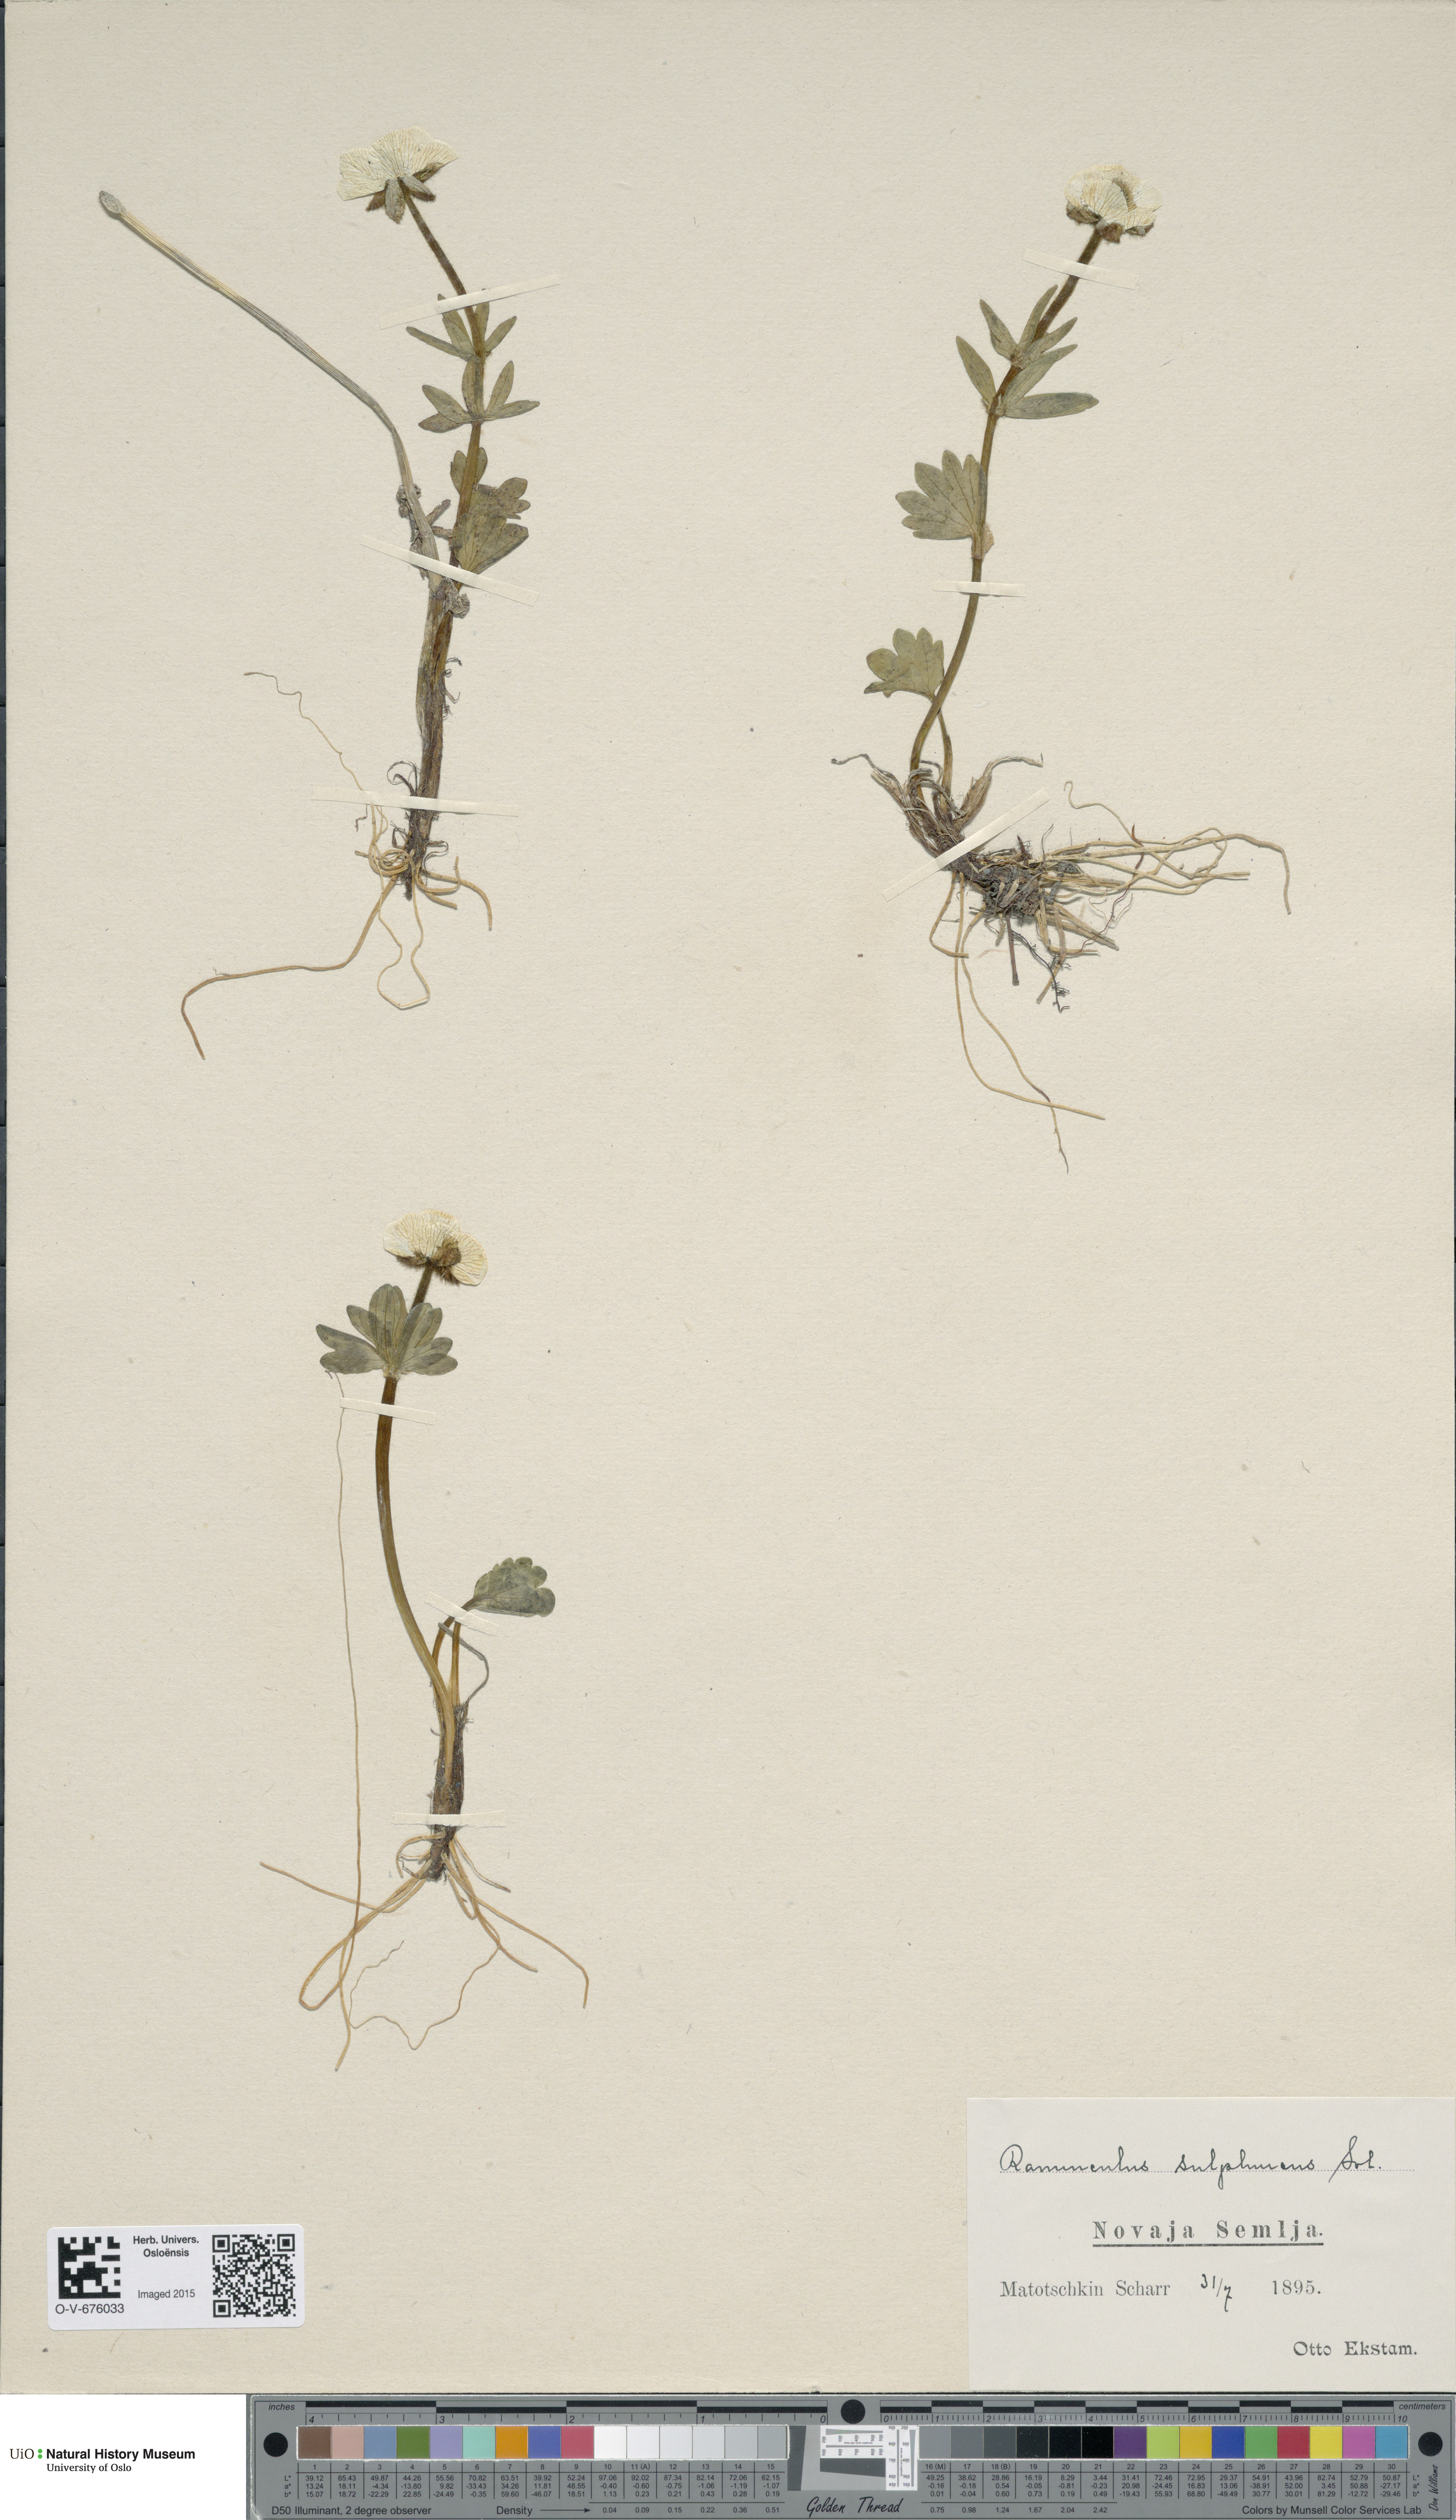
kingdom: Plantae
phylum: Tracheophyta
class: Magnoliopsida
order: Ranunculales
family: Ranunculaceae
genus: Ranunculus
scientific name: Ranunculus sulphureus
